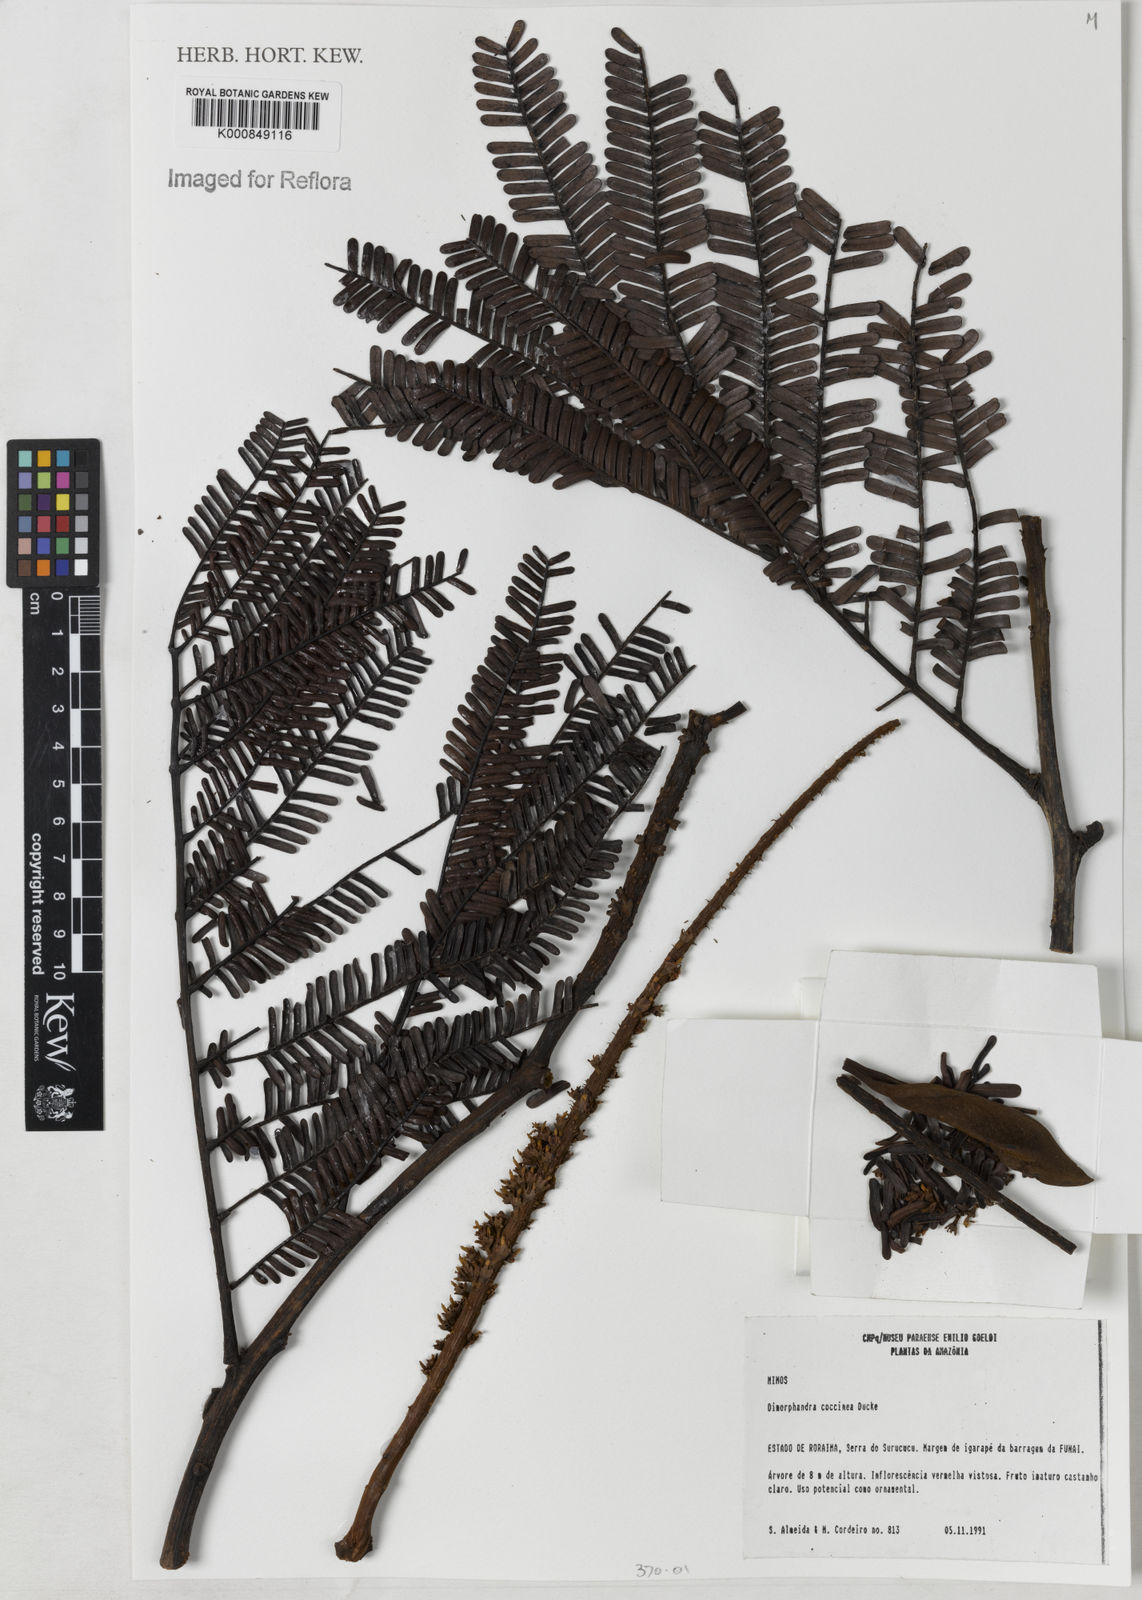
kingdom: Plantae
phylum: Tracheophyta
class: Magnoliopsida
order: Fabales
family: Fabaceae
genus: Dimorphandra
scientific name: Dimorphandra coccinea
